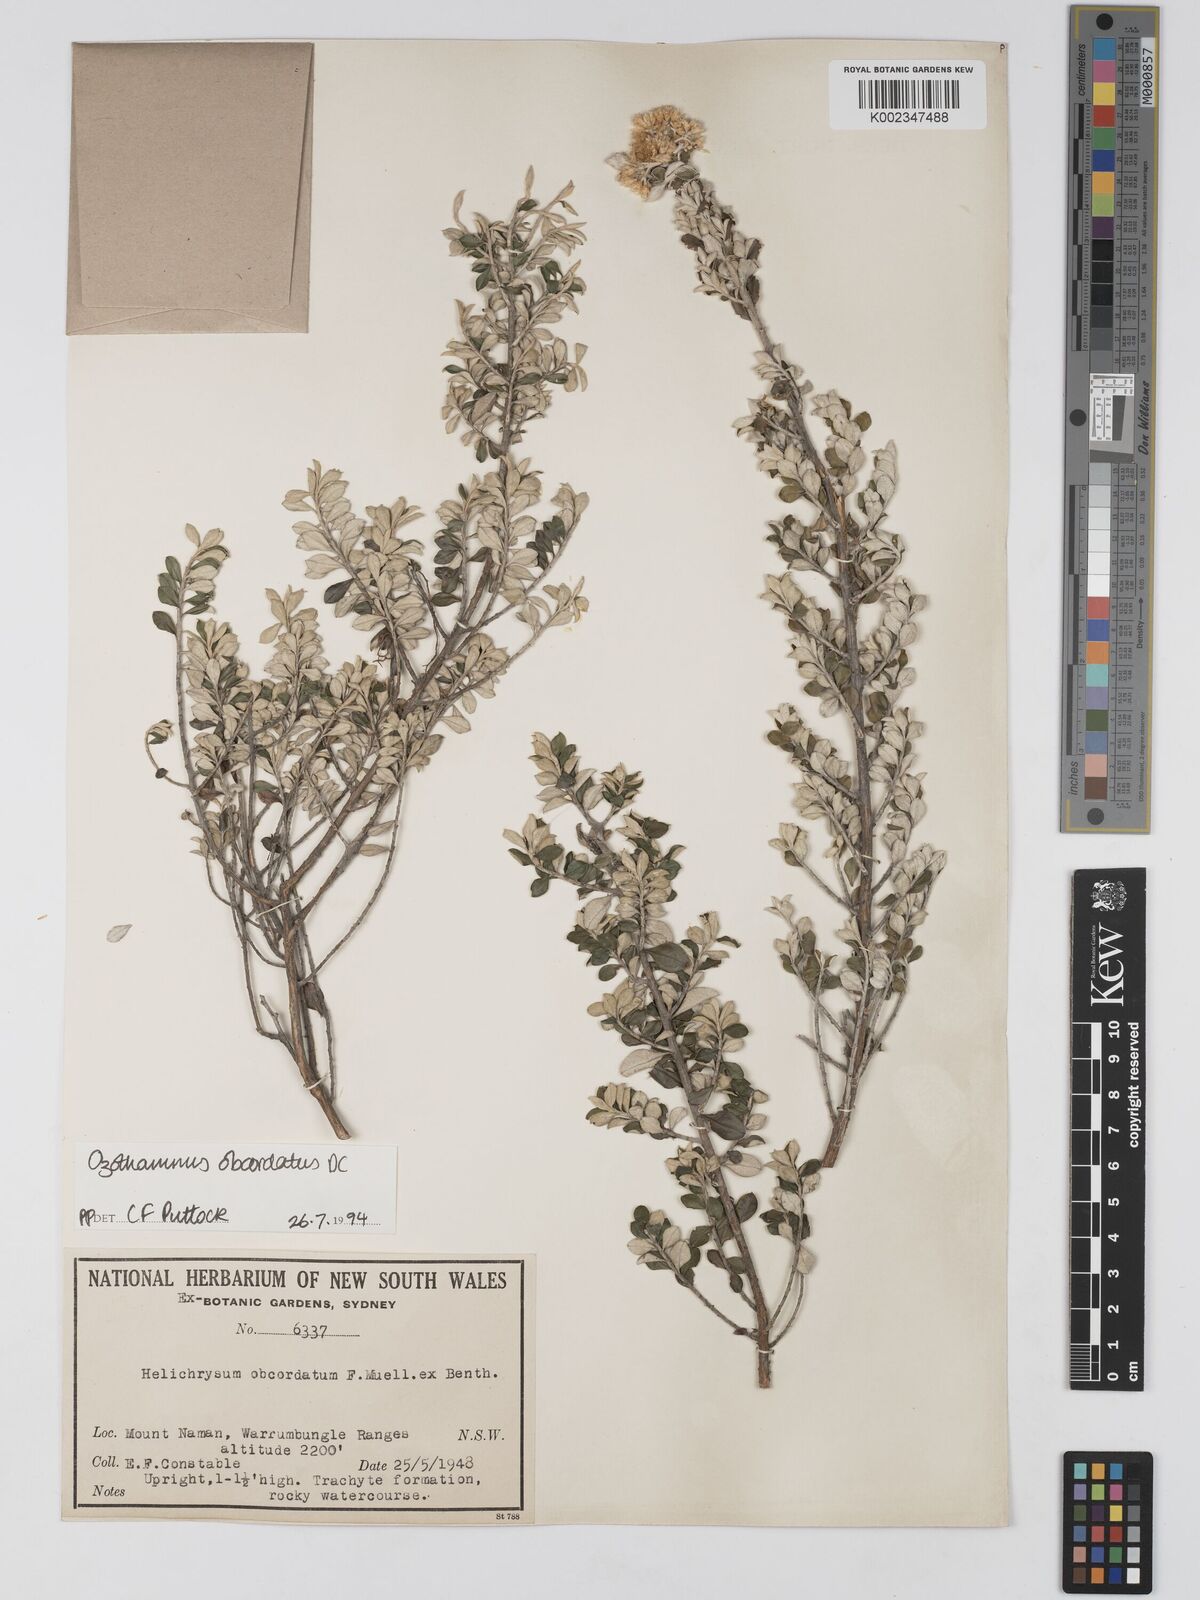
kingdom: Plantae
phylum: Tracheophyta
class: Magnoliopsida
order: Asterales
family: Asteraceae
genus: Ozothamnus
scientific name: Ozothamnus obcordatus
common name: Grey everlasting
